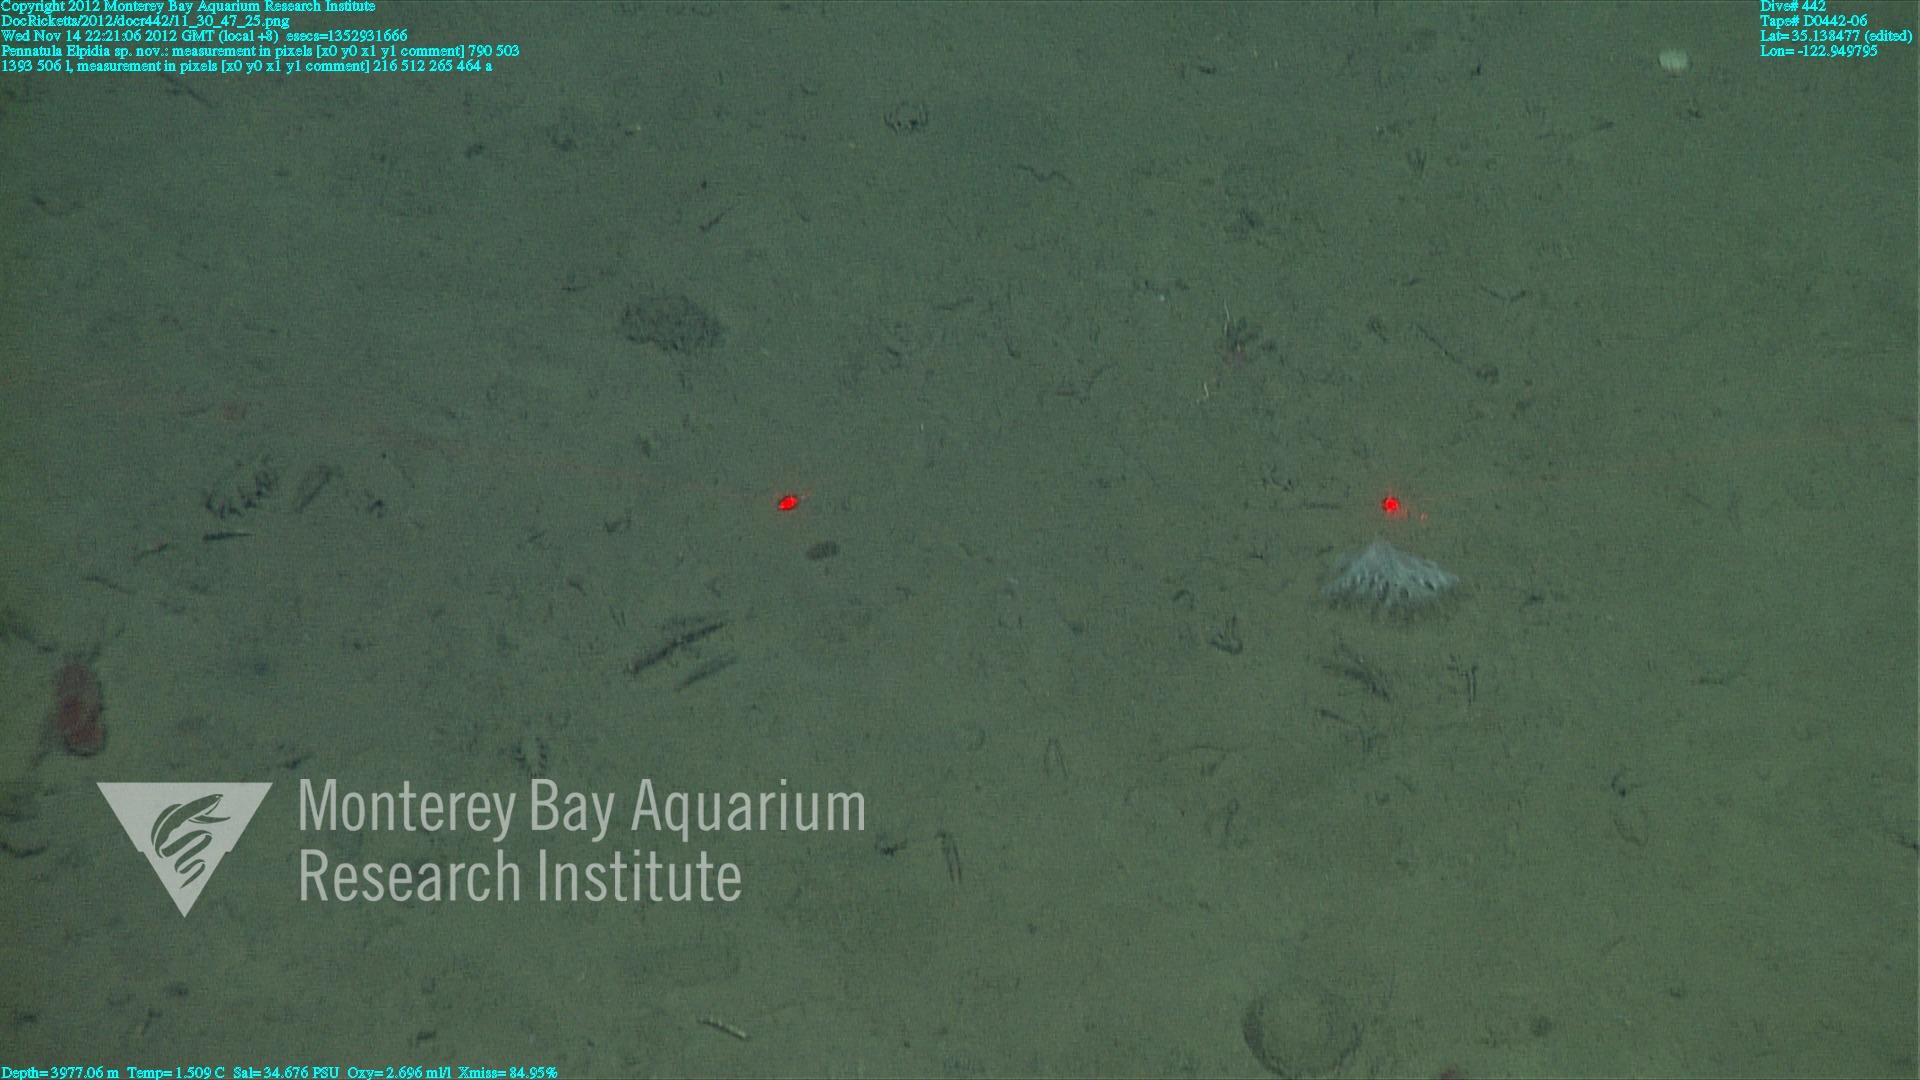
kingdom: Animalia
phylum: Cnidaria
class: Anthozoa
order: Scleralcyonacea
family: Pennatulidae
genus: Pennatula
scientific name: Pennatula
